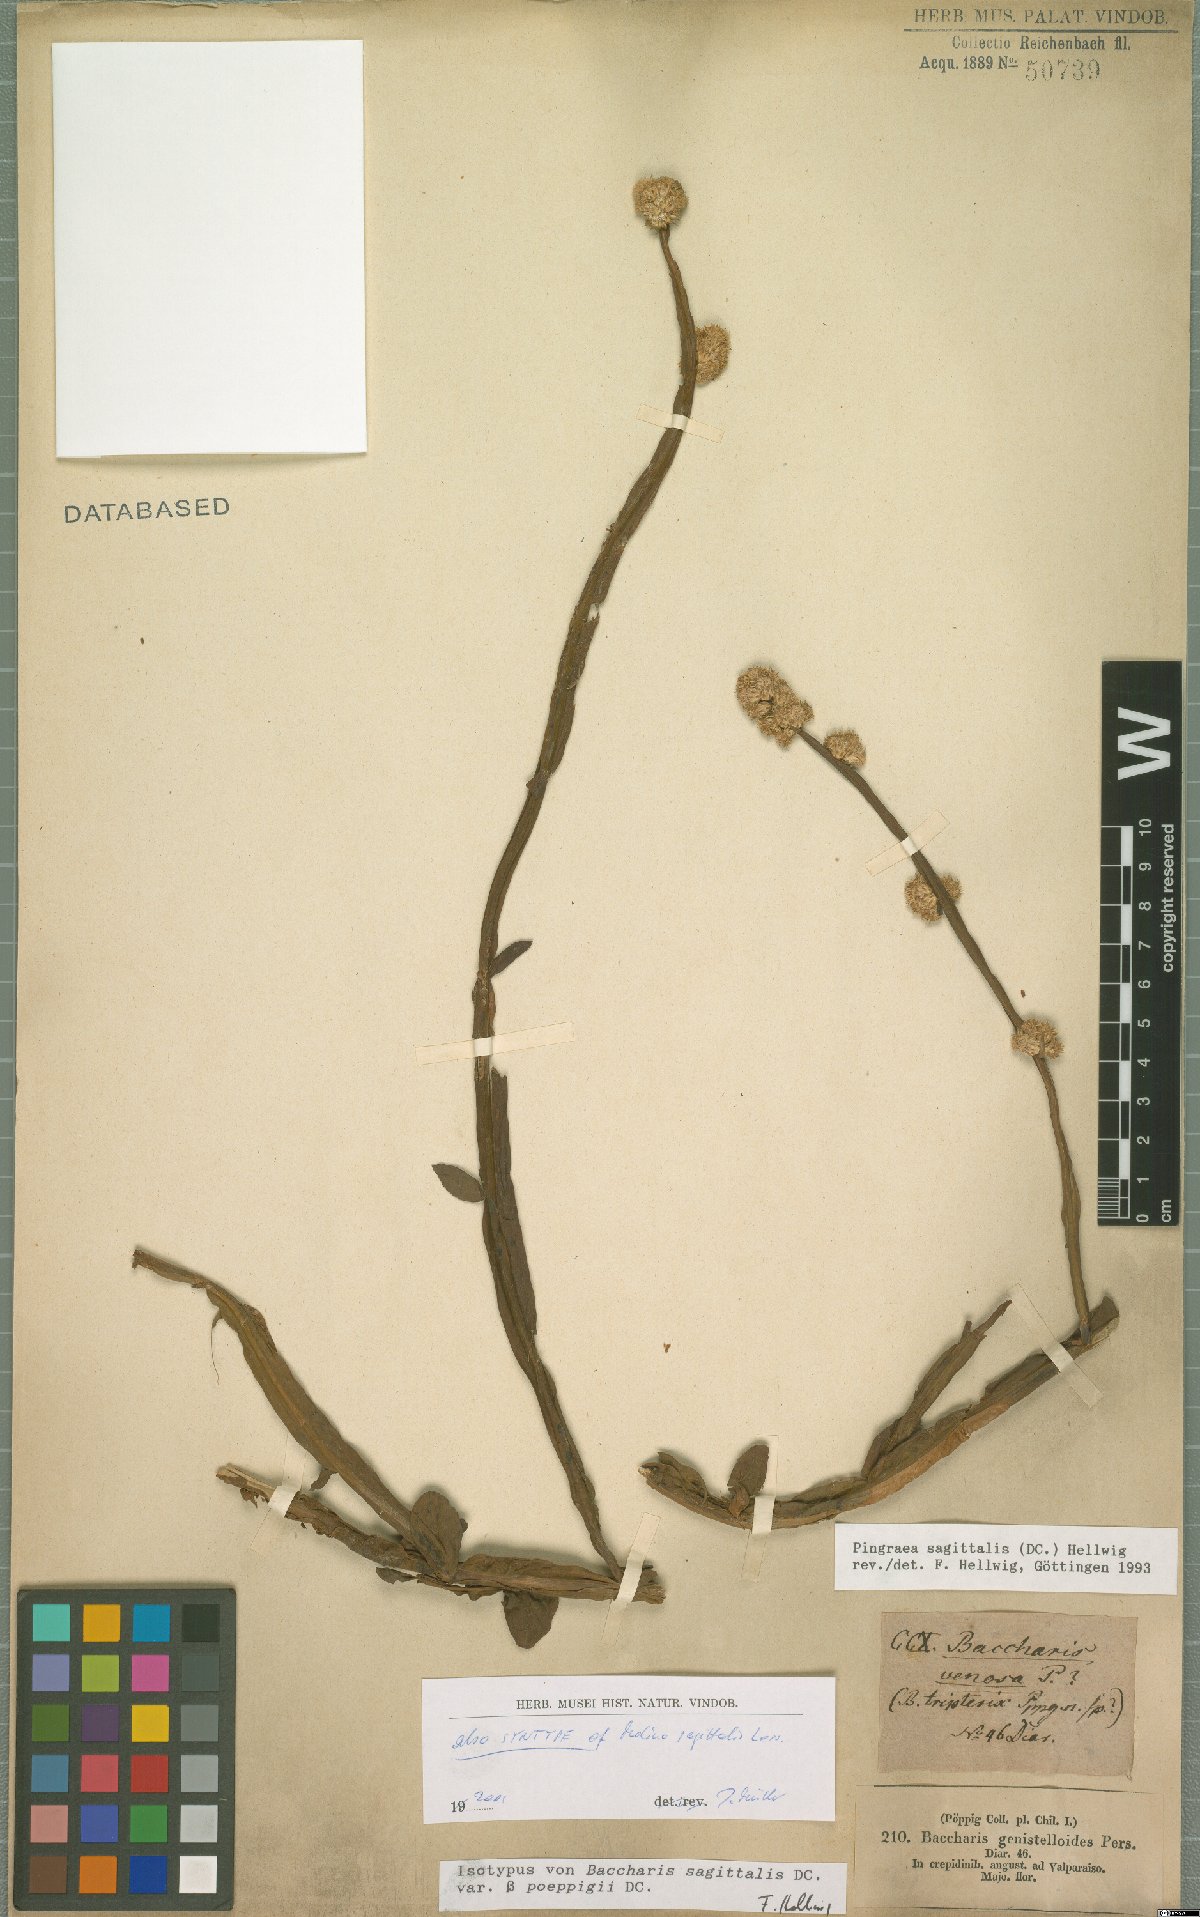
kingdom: Plantae
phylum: Tracheophyta
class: Magnoliopsida
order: Asterales
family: Asteraceae
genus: Baccharis
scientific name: Baccharis sagittalis
